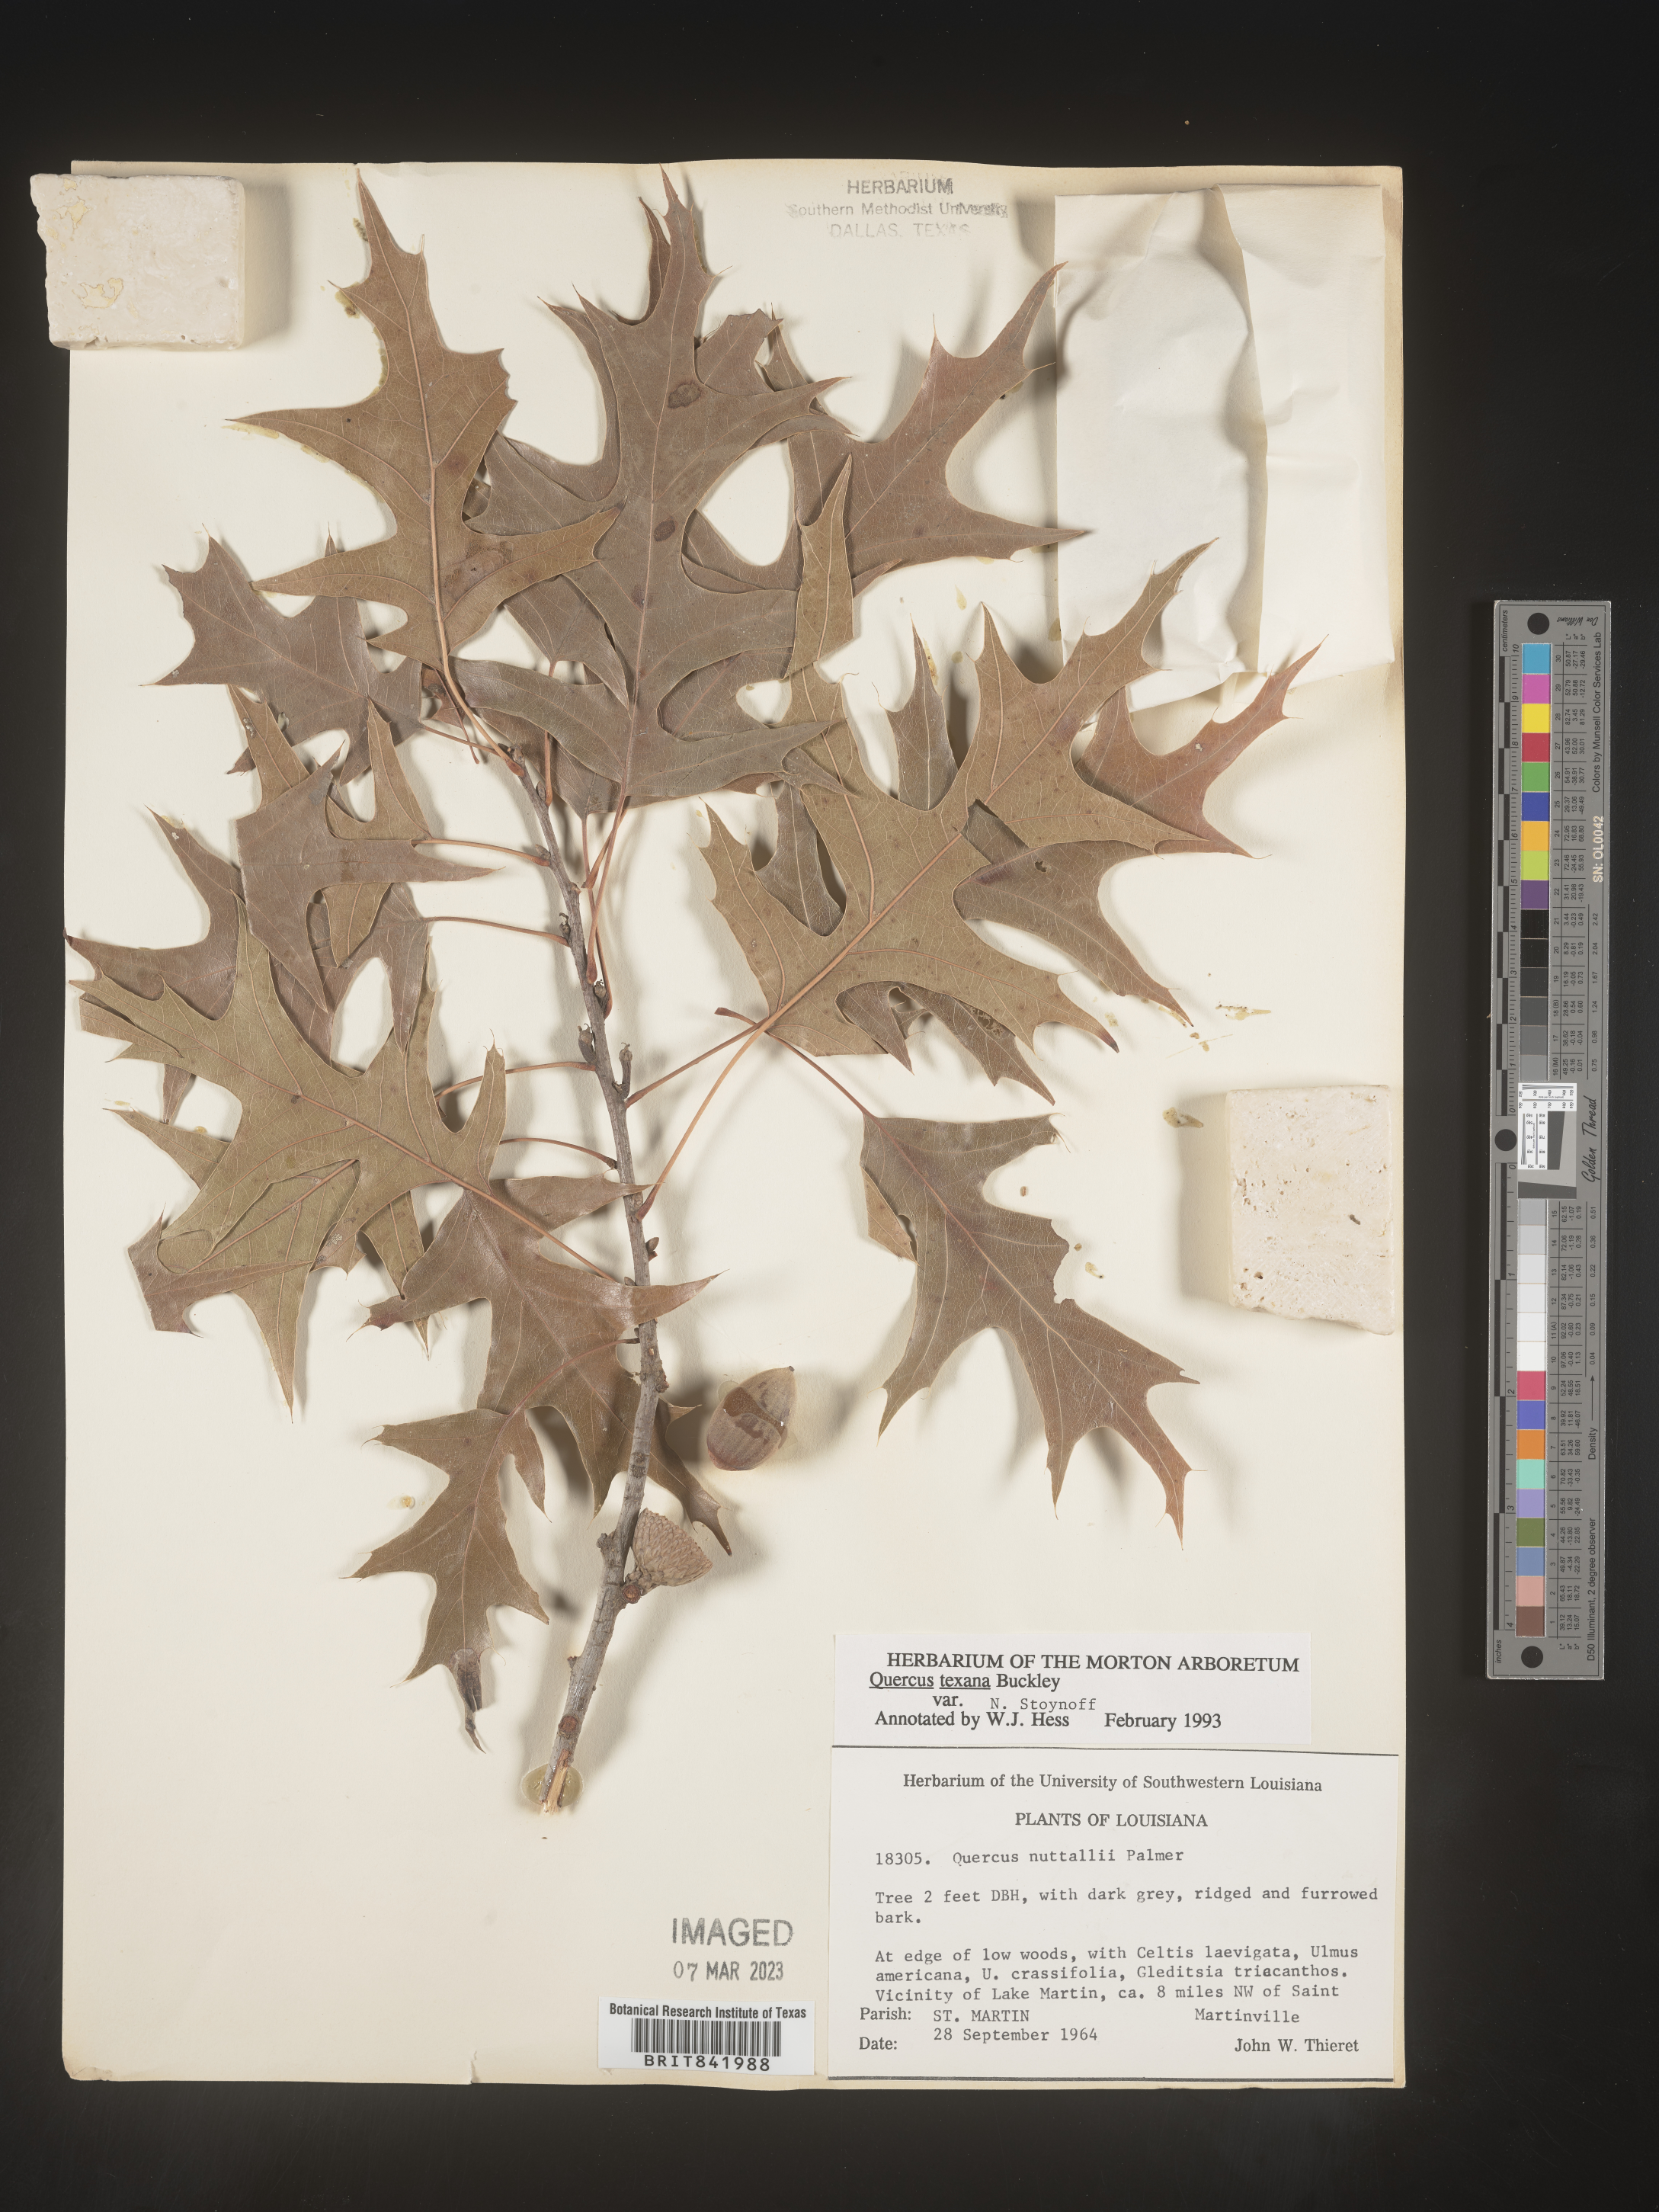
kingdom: Plantae
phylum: Tracheophyta
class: Magnoliopsida
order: Fagales
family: Fagaceae
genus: Quercus
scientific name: Quercus texana
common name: Nuttall oak
